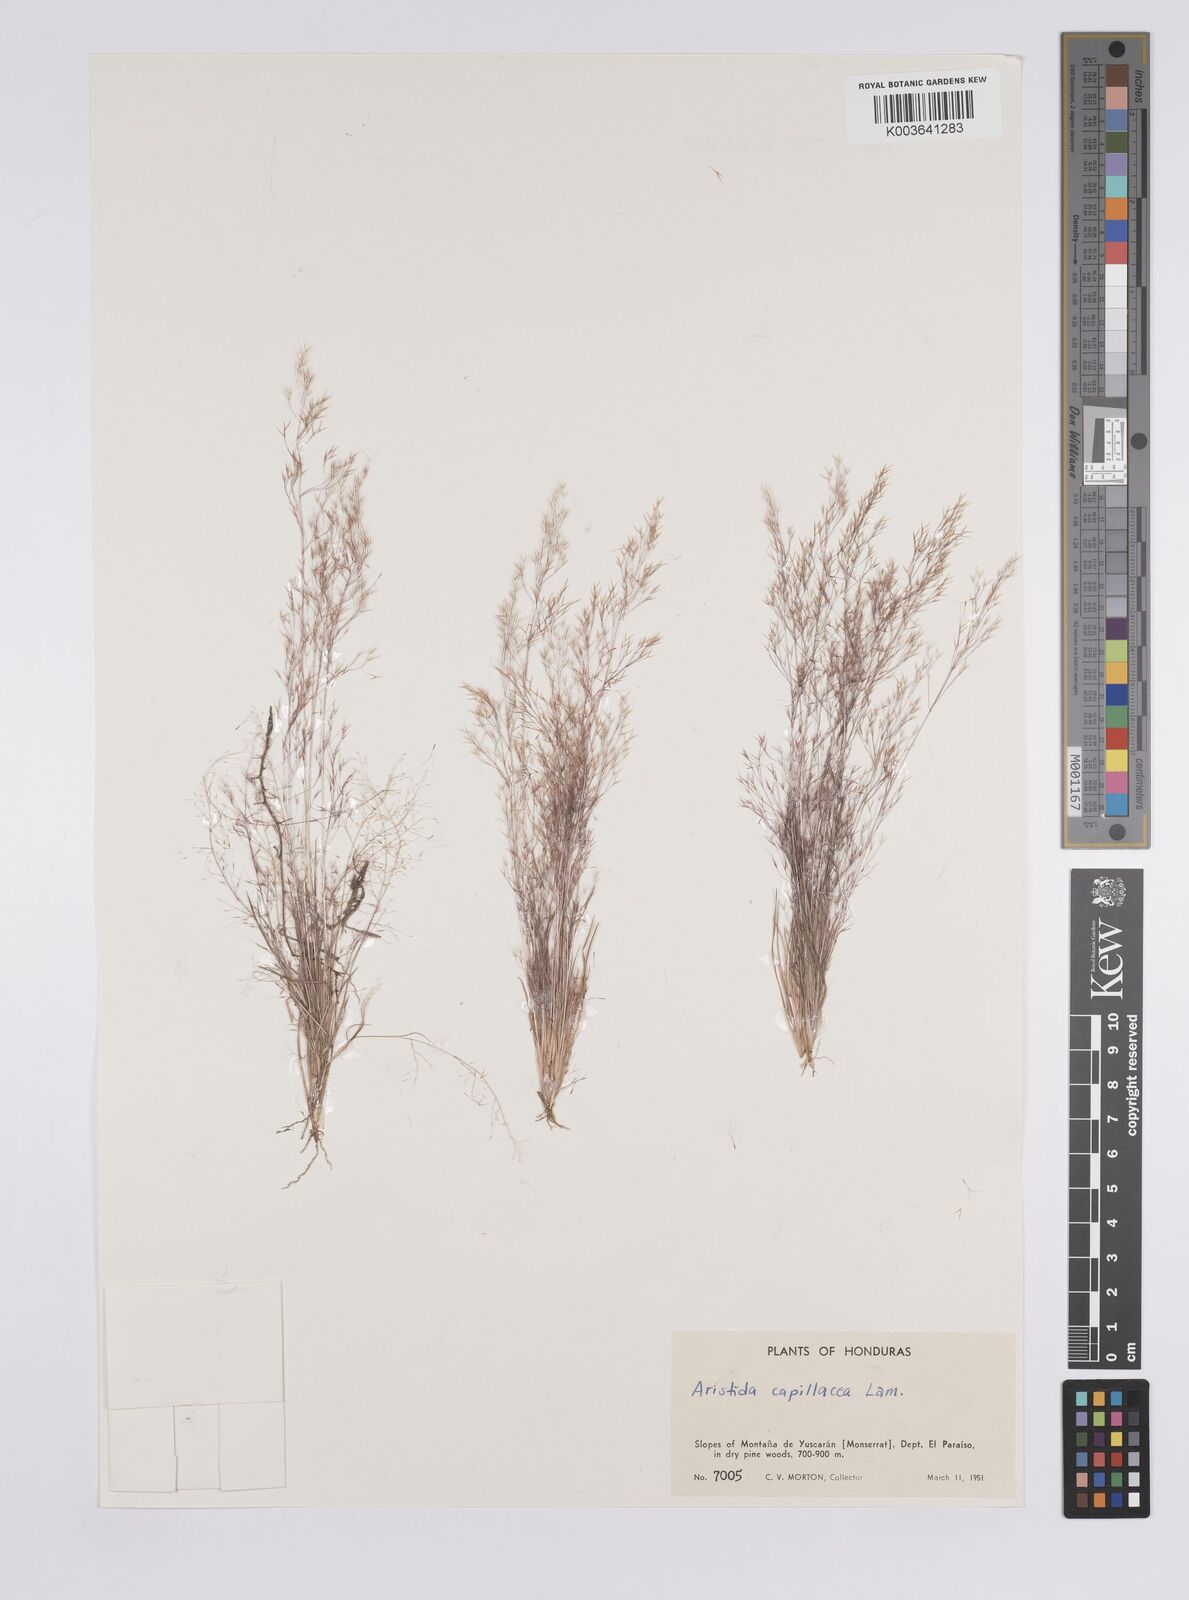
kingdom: Plantae
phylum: Tracheophyta
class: Liliopsida
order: Poales
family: Poaceae
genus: Aristida
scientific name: Aristida capillacea
